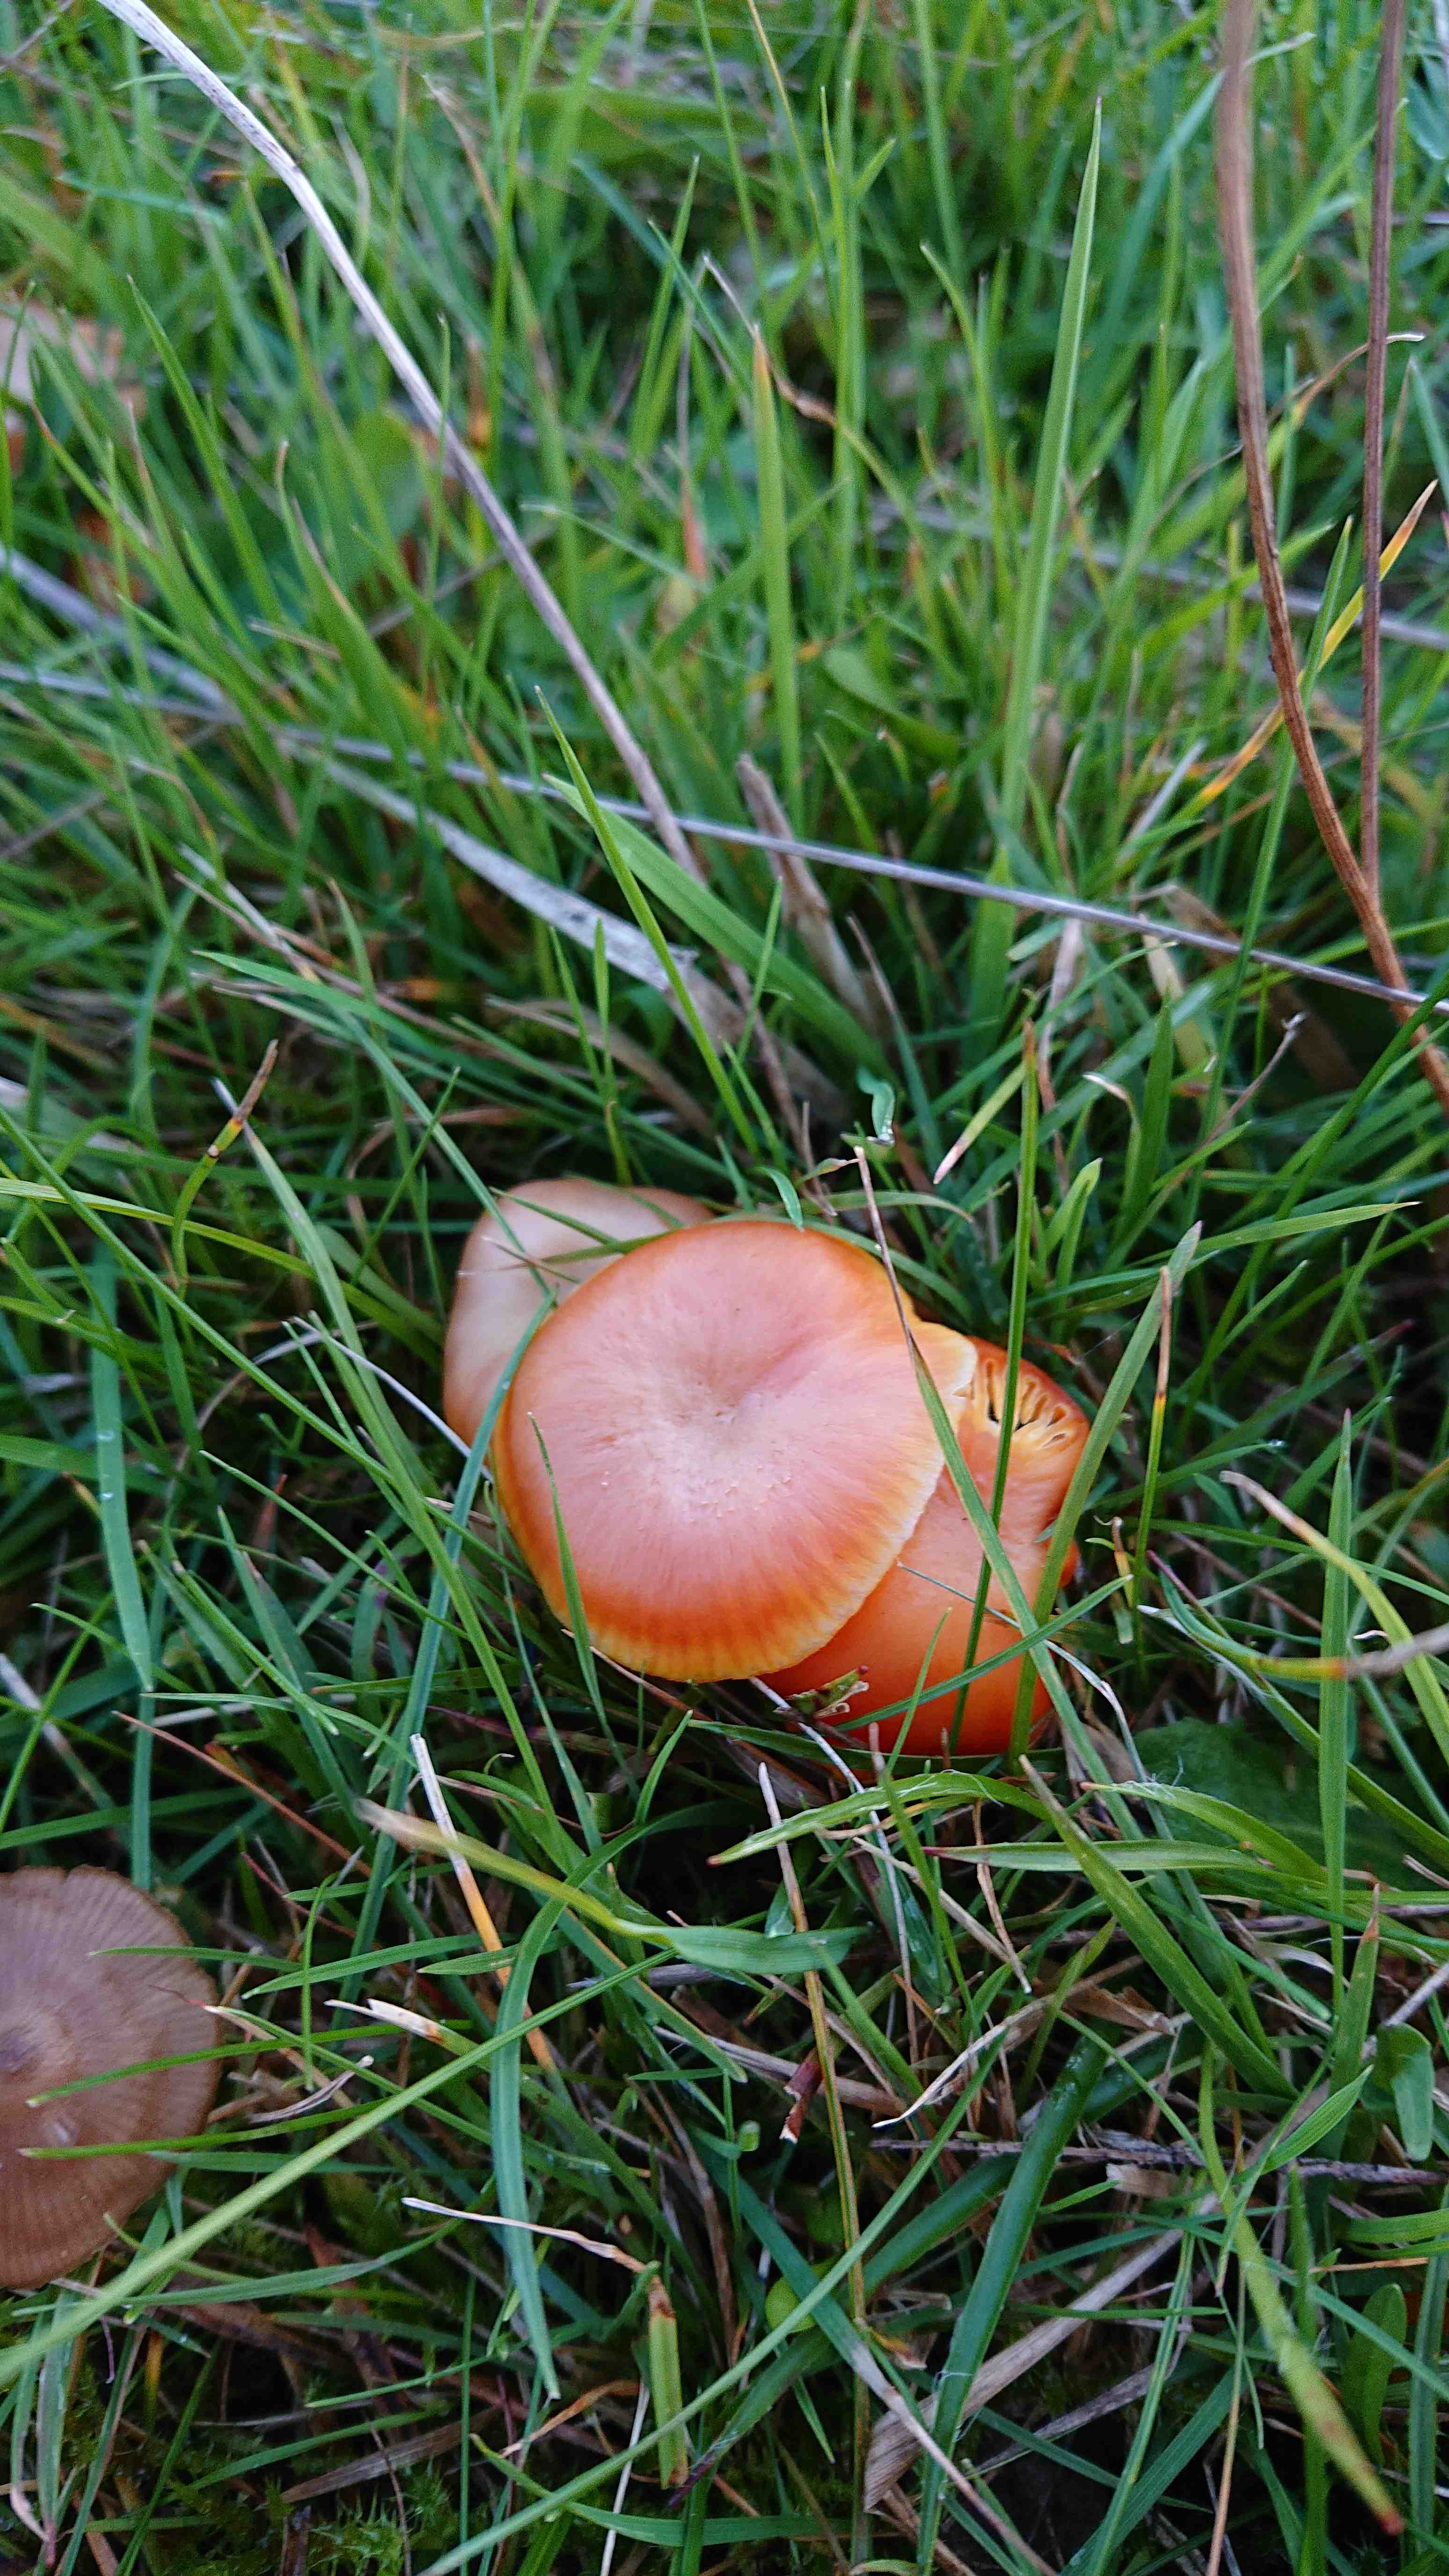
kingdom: Fungi
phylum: Basidiomycota
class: Agaricomycetes
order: Agaricales
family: Hygrophoraceae
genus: Hygrocybe
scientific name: Hygrocybe reidii
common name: honning-vokshat
